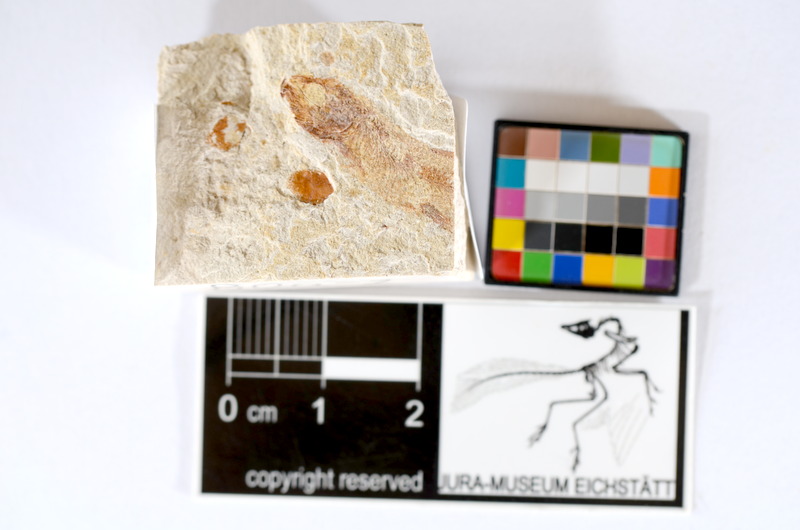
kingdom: Animalia
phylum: Chordata
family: Ascalaboidae
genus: Tharsis
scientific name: Tharsis dubius
